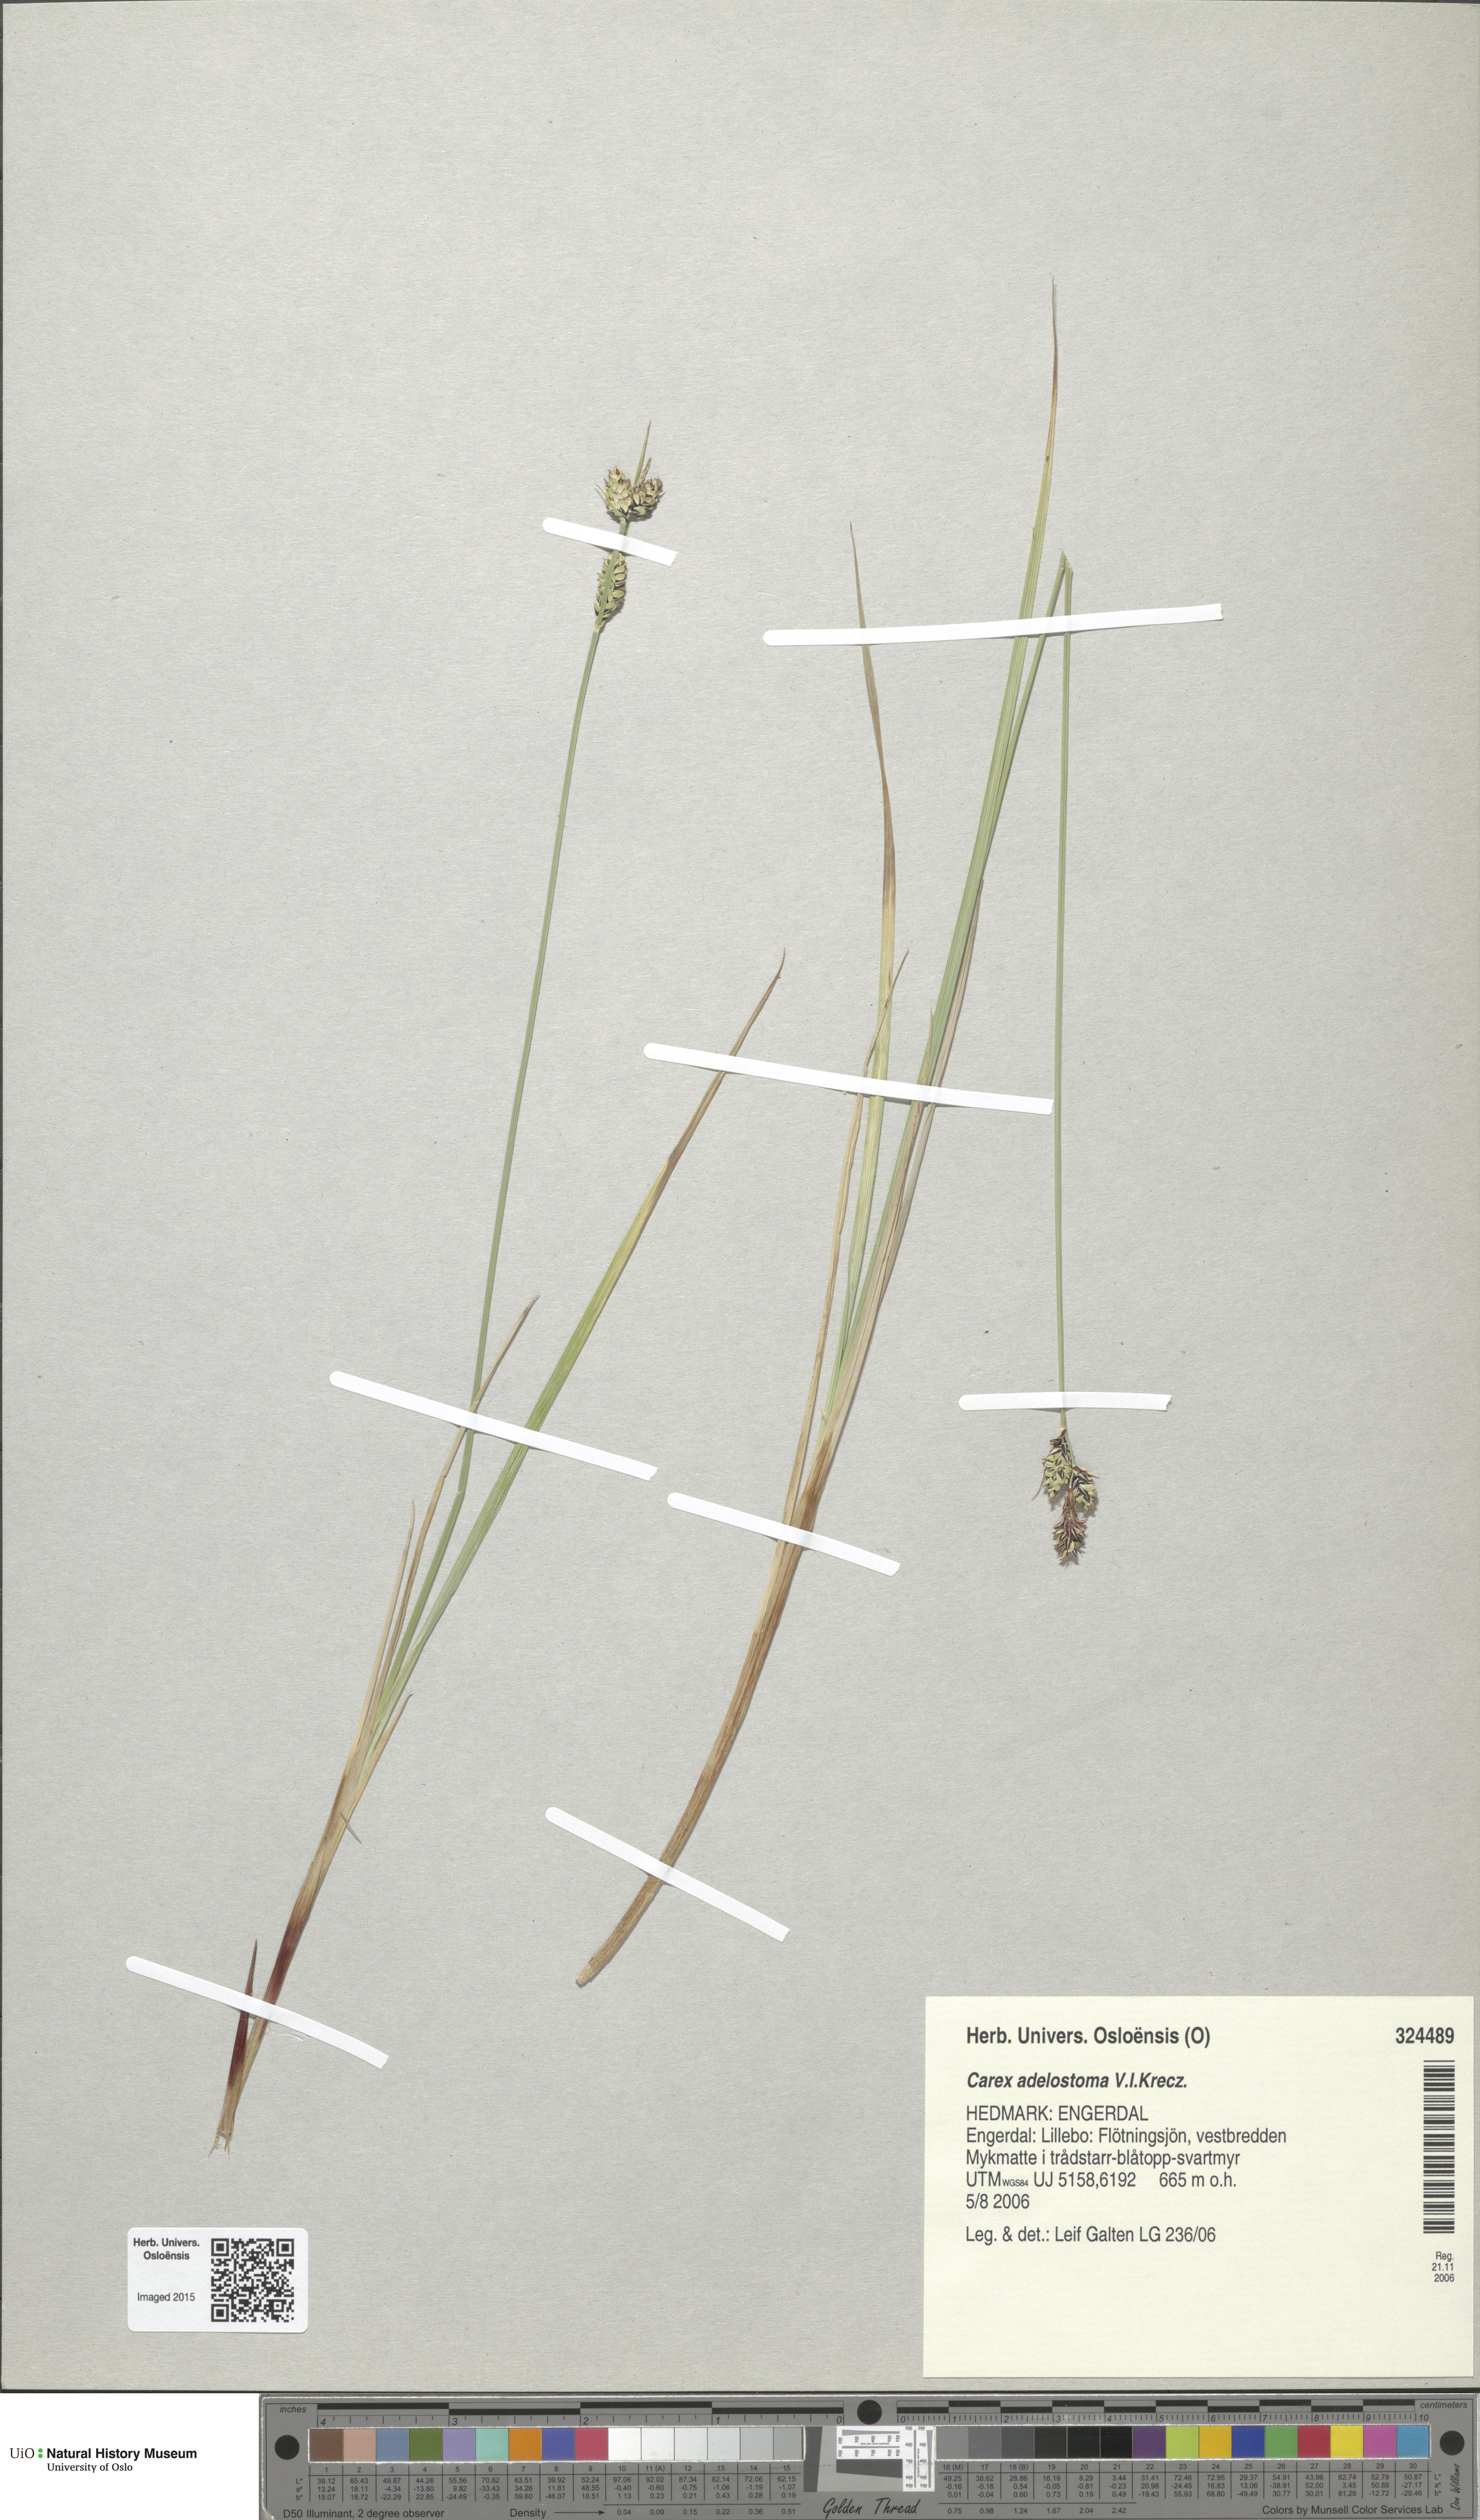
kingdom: Plantae
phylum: Tracheophyta
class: Liliopsida
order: Poales
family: Cyperaceae
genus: Carex
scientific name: Carex adelostoma
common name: Circumpolar sedge
